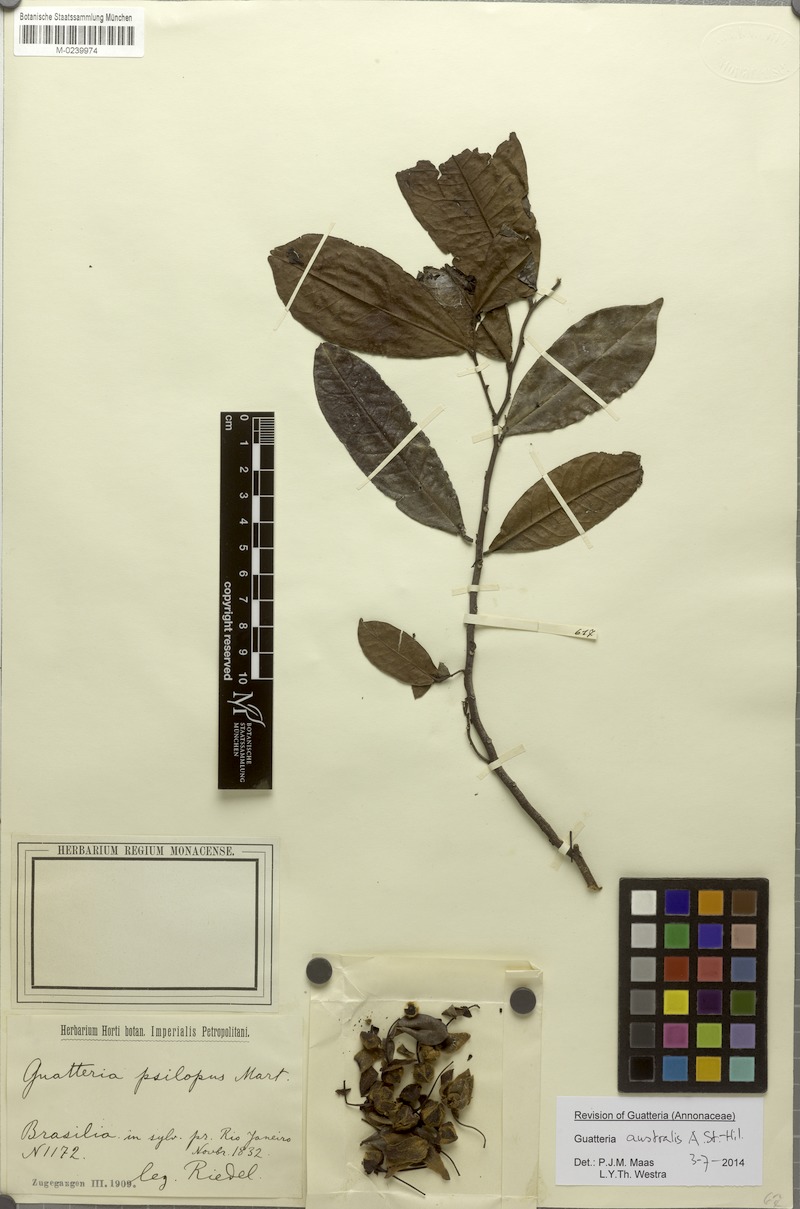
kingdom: Plantae
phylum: Tracheophyta
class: Magnoliopsida
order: Magnoliales
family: Annonaceae
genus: Guatteria
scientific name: Guatteria australis
